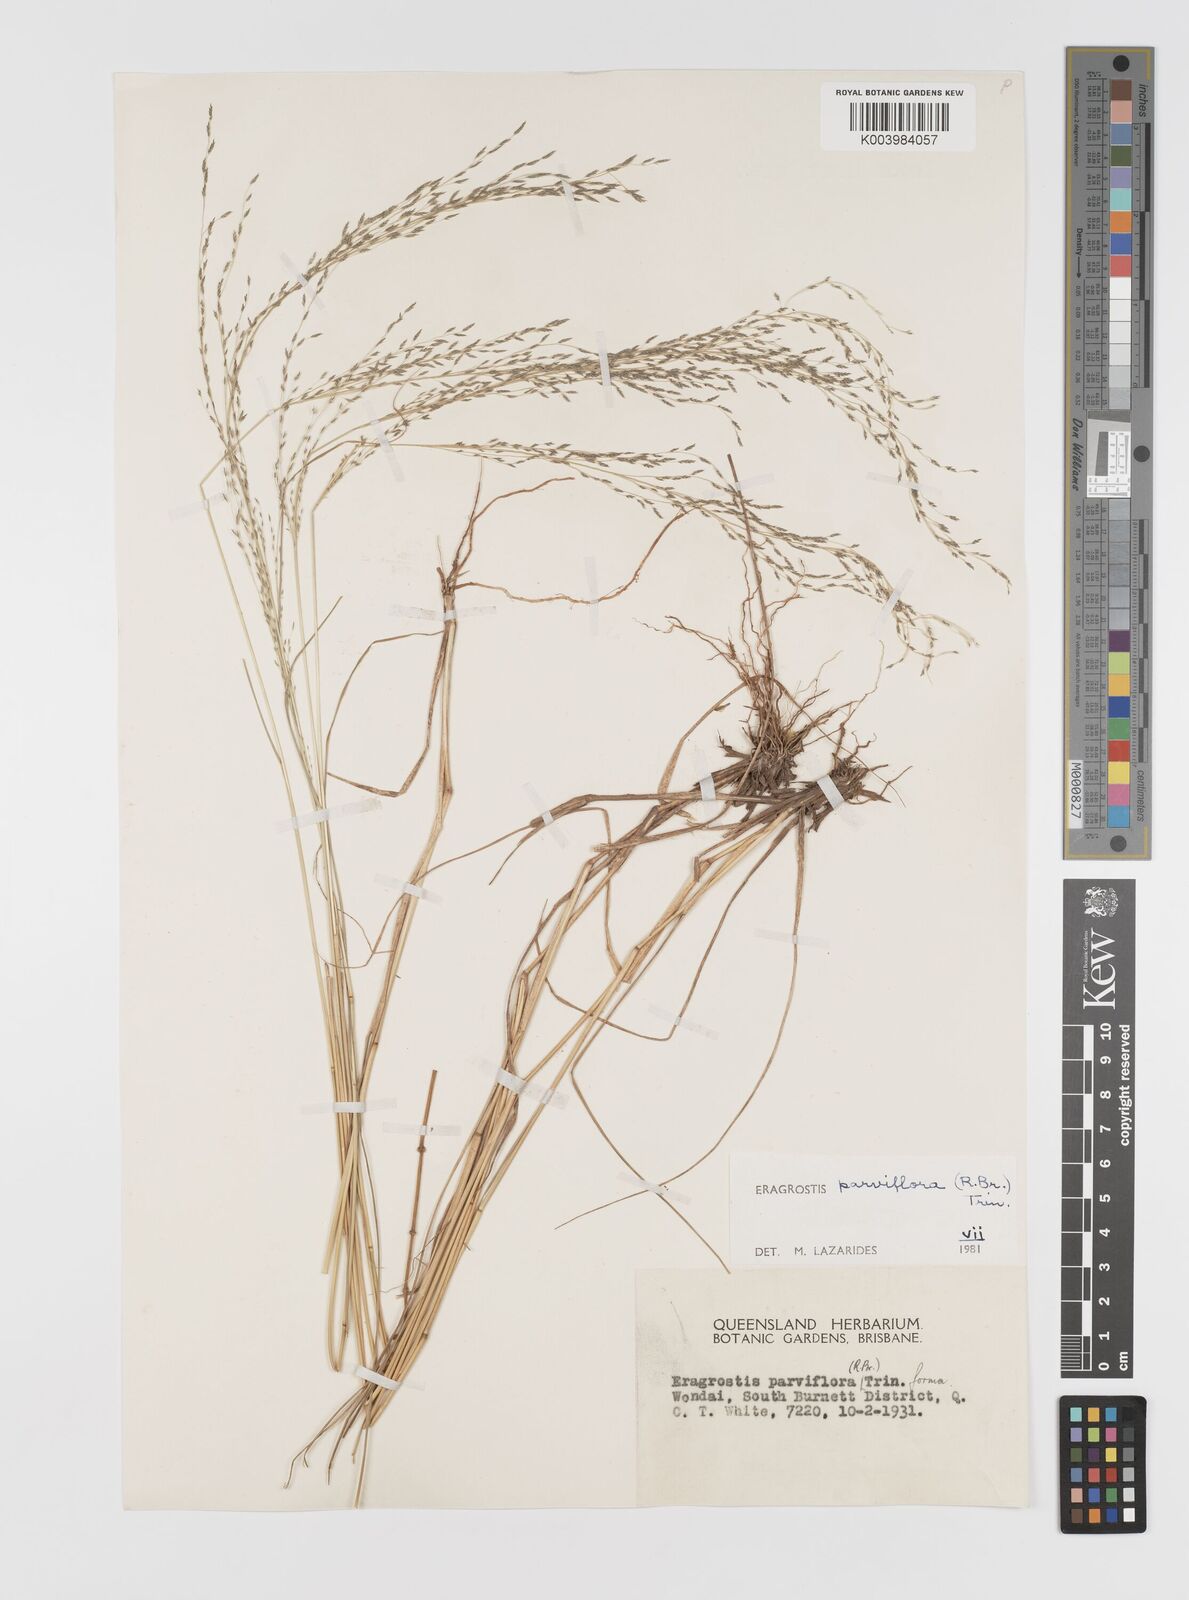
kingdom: Plantae
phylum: Tracheophyta
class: Liliopsida
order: Poales
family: Poaceae
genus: Eragrostis
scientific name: Eragrostis parviflora
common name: Weeping love-grass
